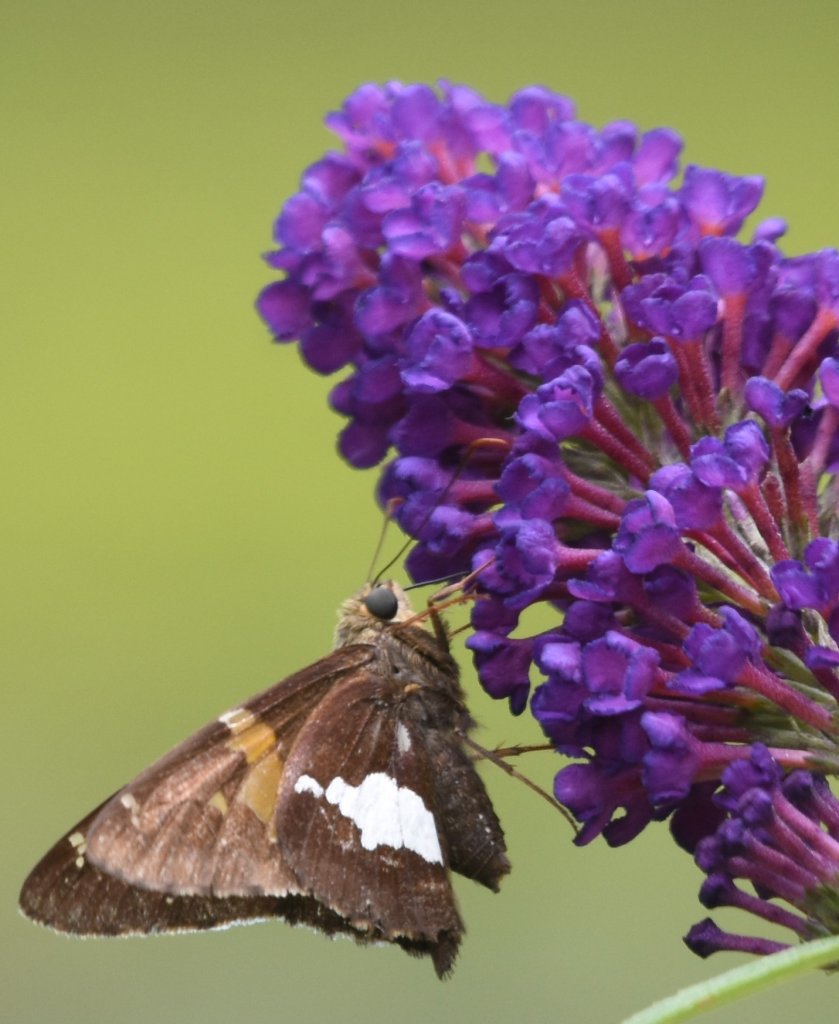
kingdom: Animalia
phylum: Arthropoda
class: Insecta
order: Lepidoptera
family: Hesperiidae
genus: Epargyreus
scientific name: Epargyreus clarus
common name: Silver-spotted Skipper
